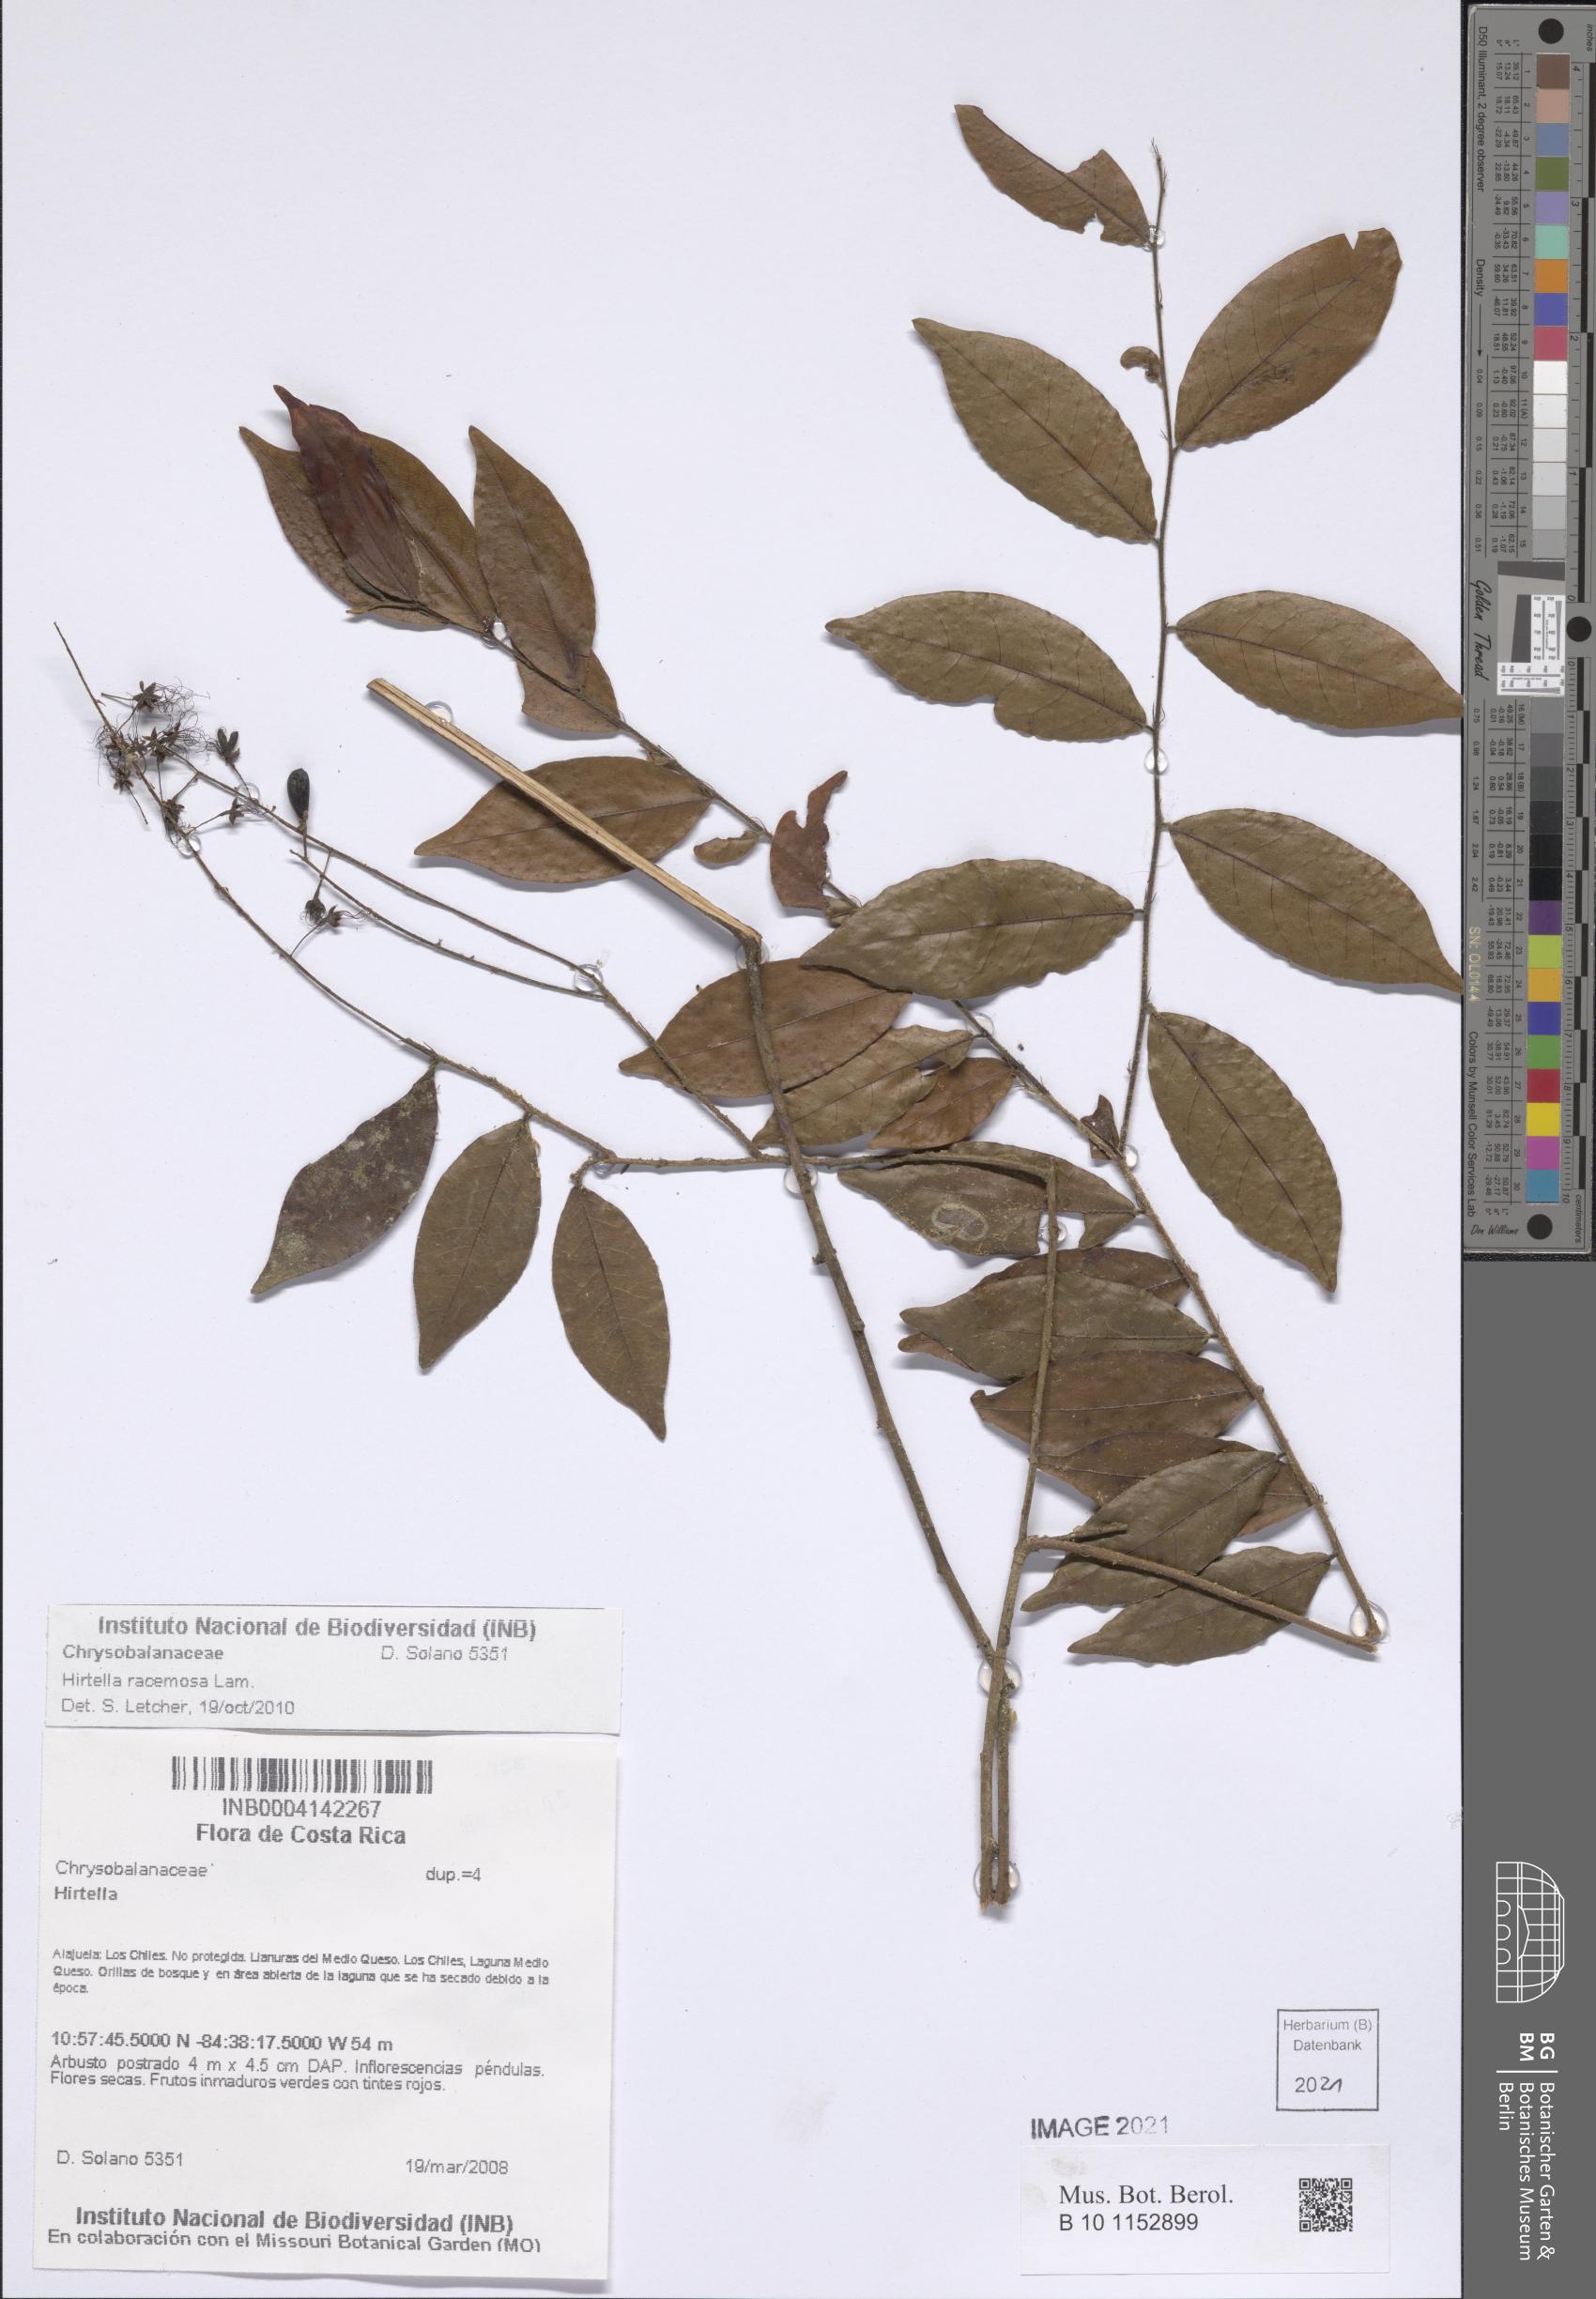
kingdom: Plantae
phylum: Tracheophyta
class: Magnoliopsida
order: Malpighiales
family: Chrysobalanaceae
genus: Hirtella
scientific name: Hirtella racemosa
